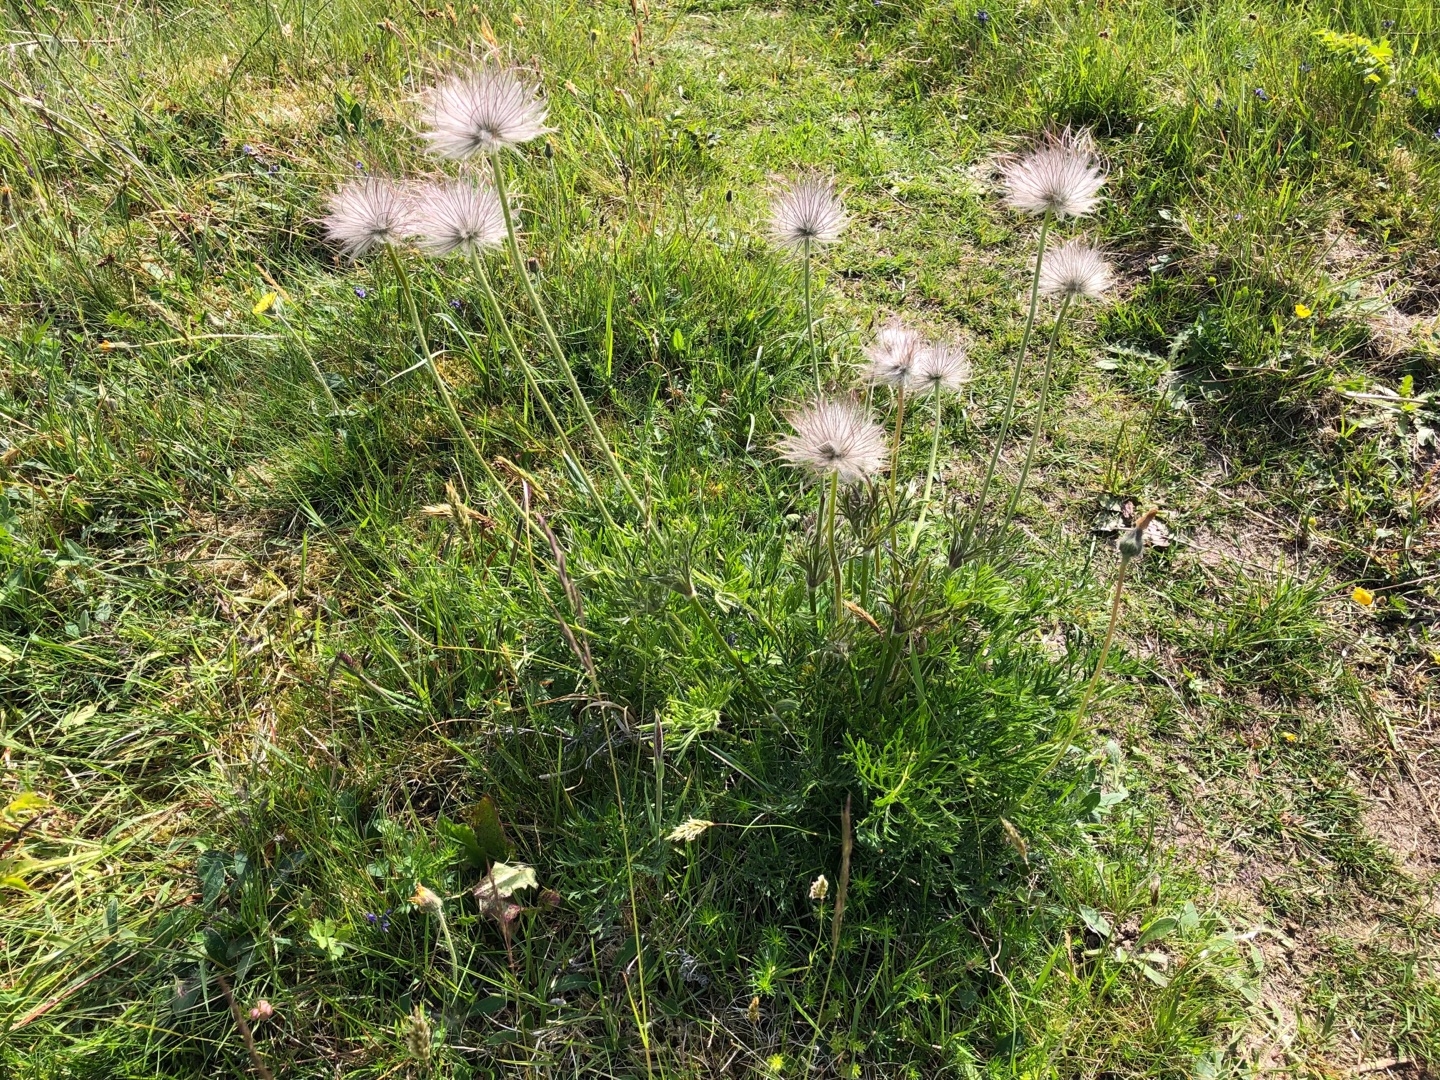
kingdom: Plantae
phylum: Tracheophyta
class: Magnoliopsida
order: Ranunculales
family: Ranunculaceae
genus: Pulsatilla
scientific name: Pulsatilla pratensis
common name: Nikkende kobjælde
